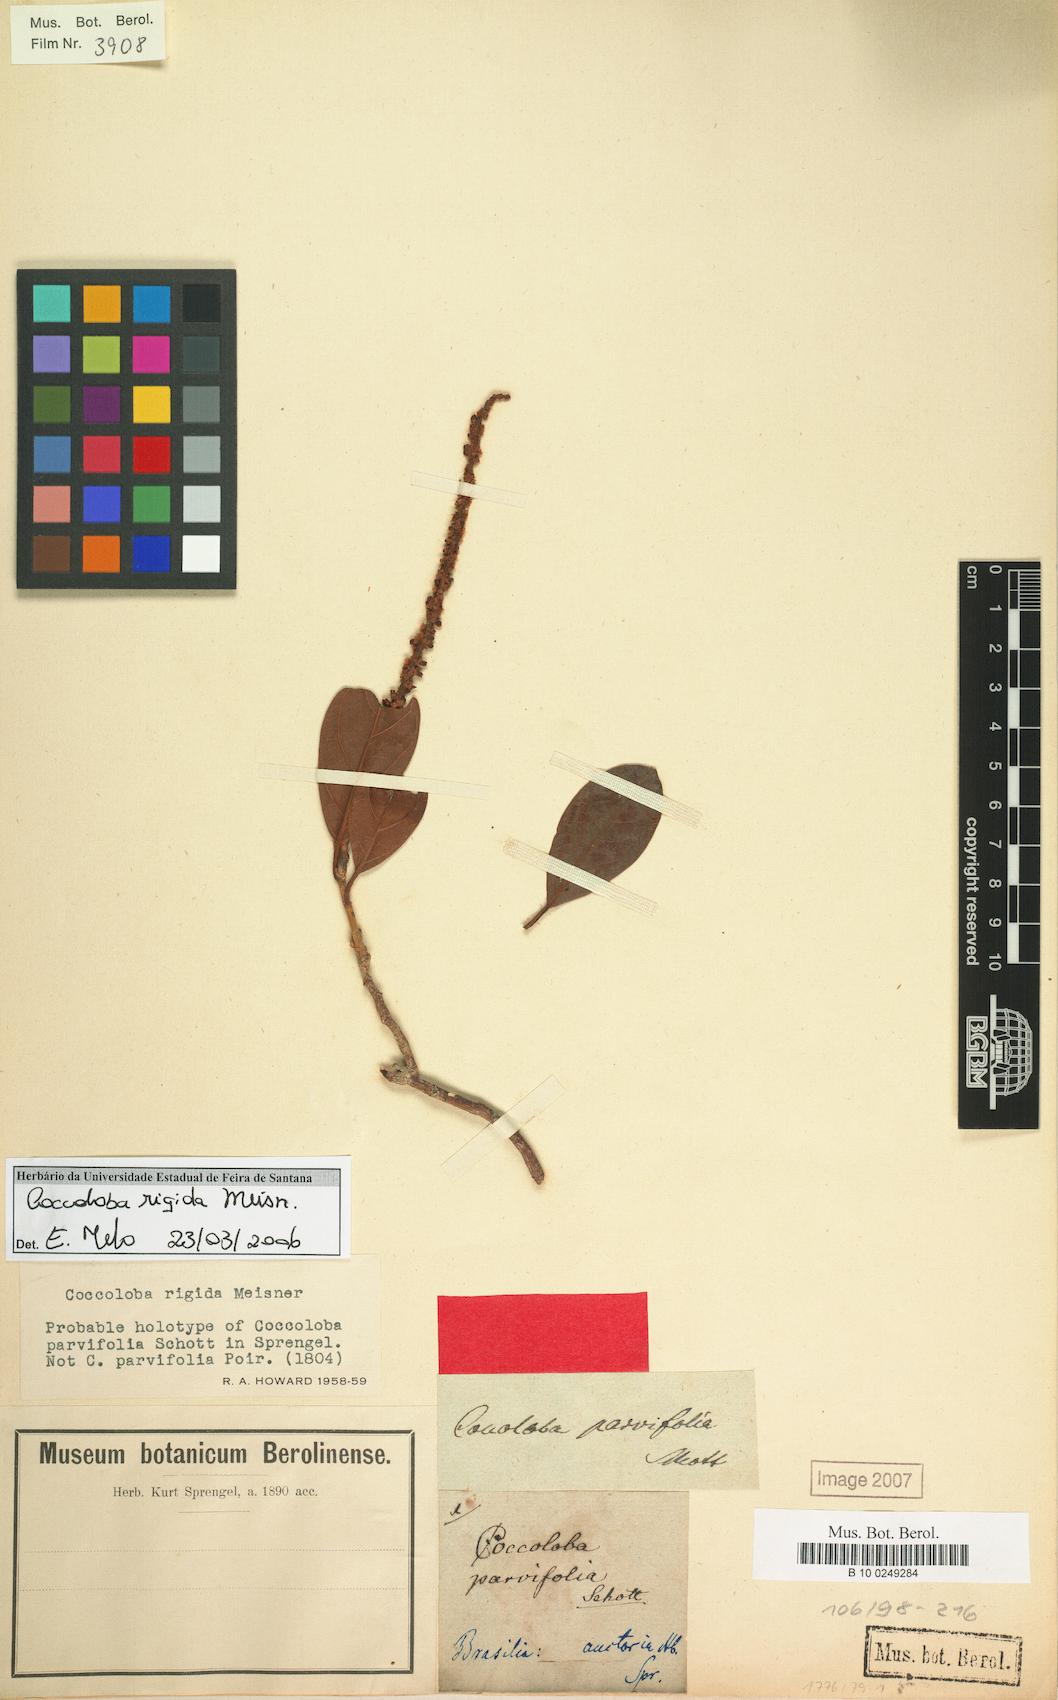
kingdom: Plantae
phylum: Tracheophyta
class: Magnoliopsida
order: Caryophyllales
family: Polygonaceae
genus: Coccoloba
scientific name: Coccoloba rigida
